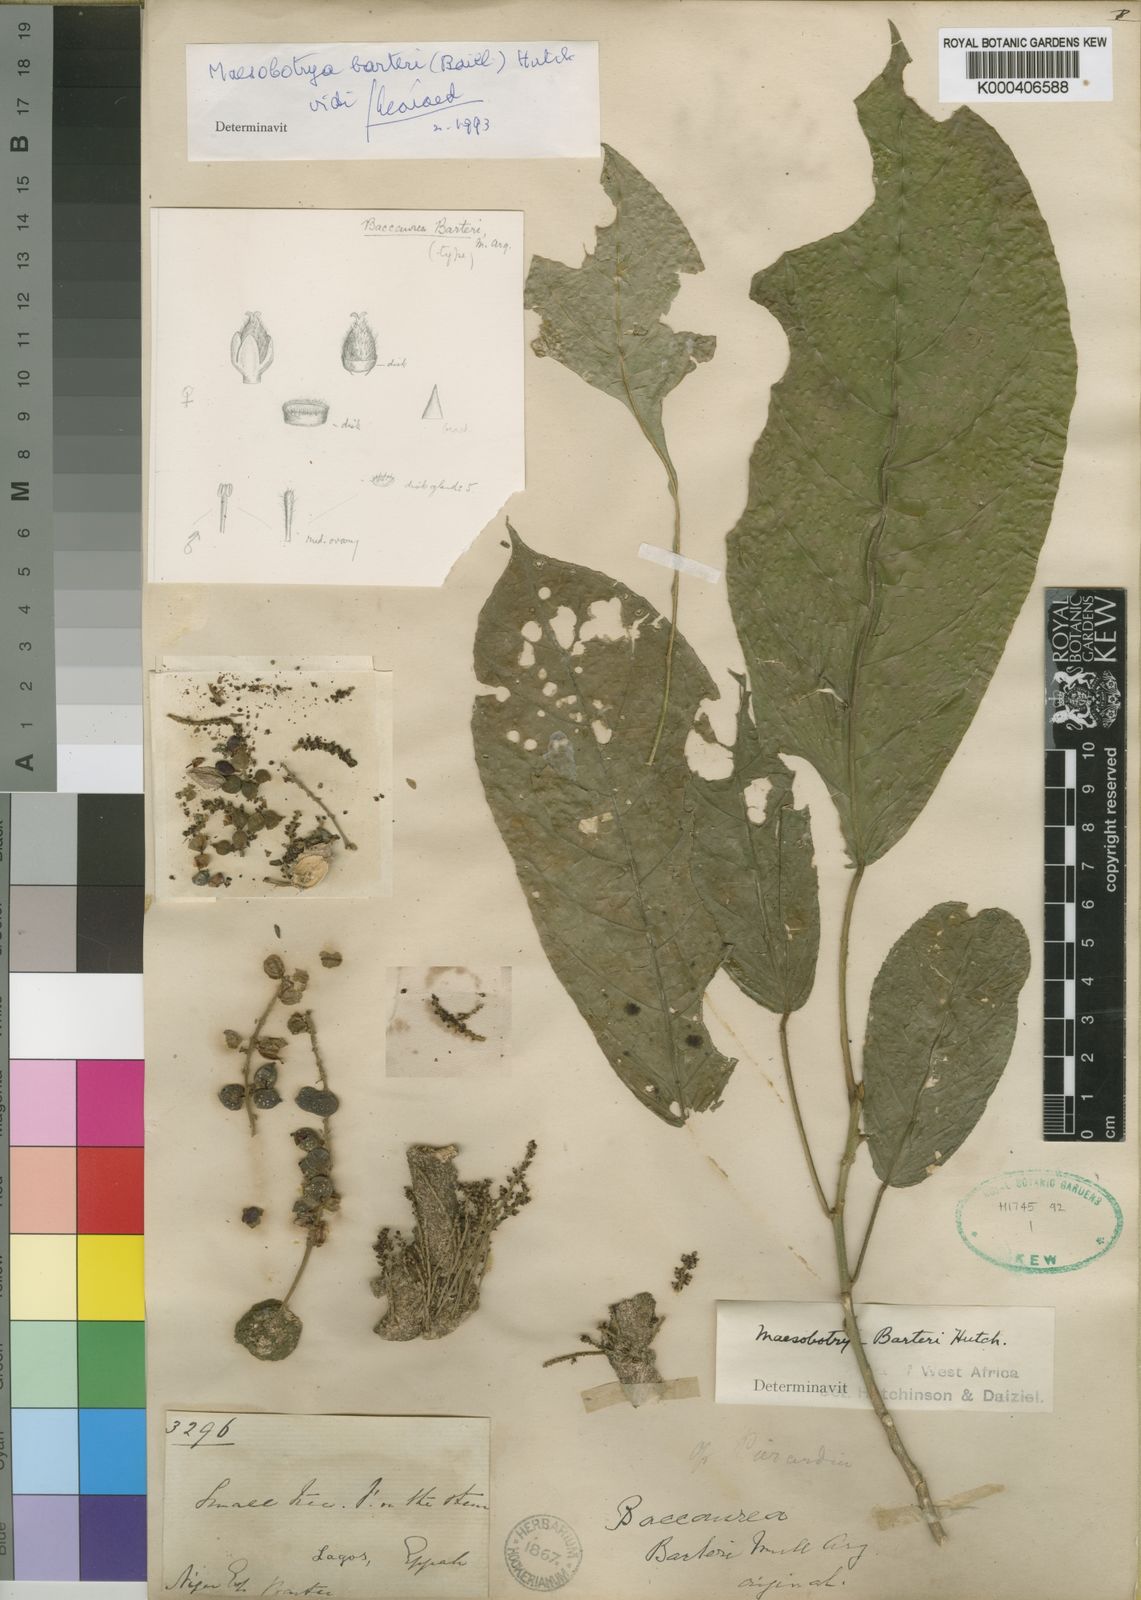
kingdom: Plantae
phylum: Tracheophyta
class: Magnoliopsida
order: Malpighiales
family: Phyllanthaceae
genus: Maesobotrya
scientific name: Maesobotrya barteri
